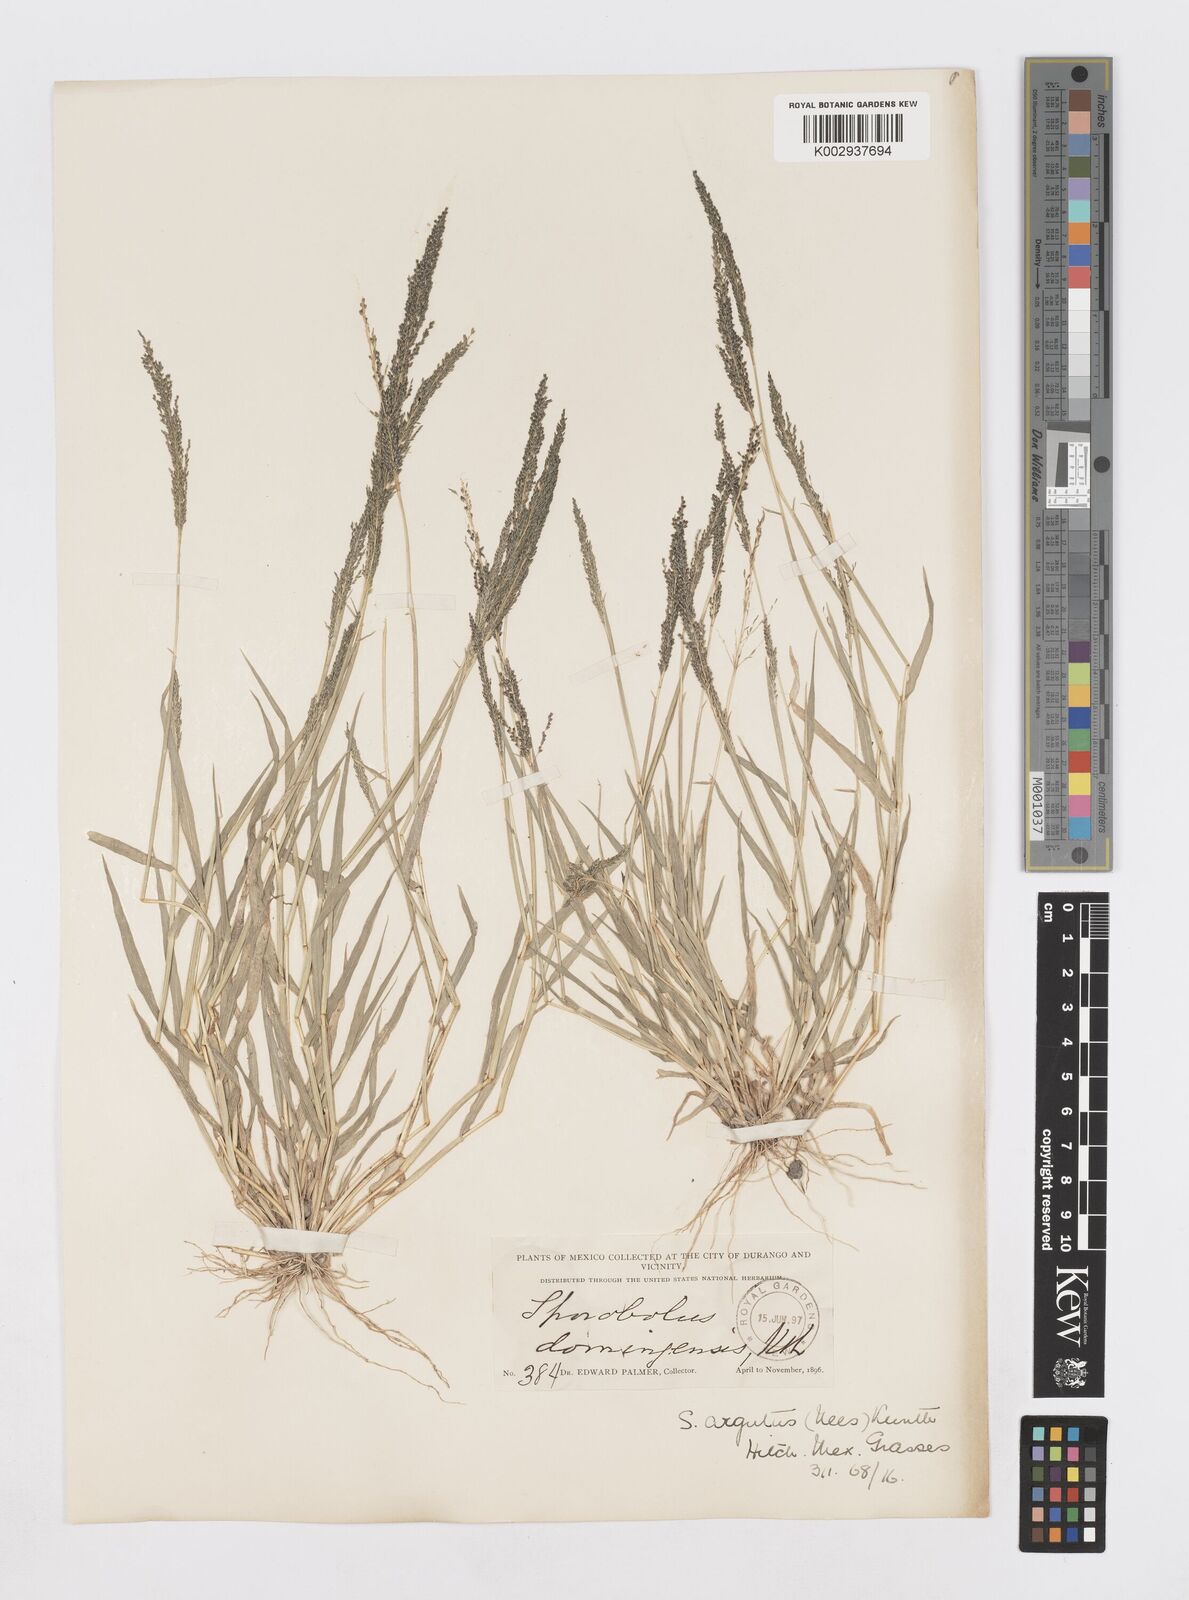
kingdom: Plantae
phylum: Tracheophyta
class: Liliopsida
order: Poales
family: Poaceae
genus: Sporobolus
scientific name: Sporobolus pyramidatus
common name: Whorled dropseed
